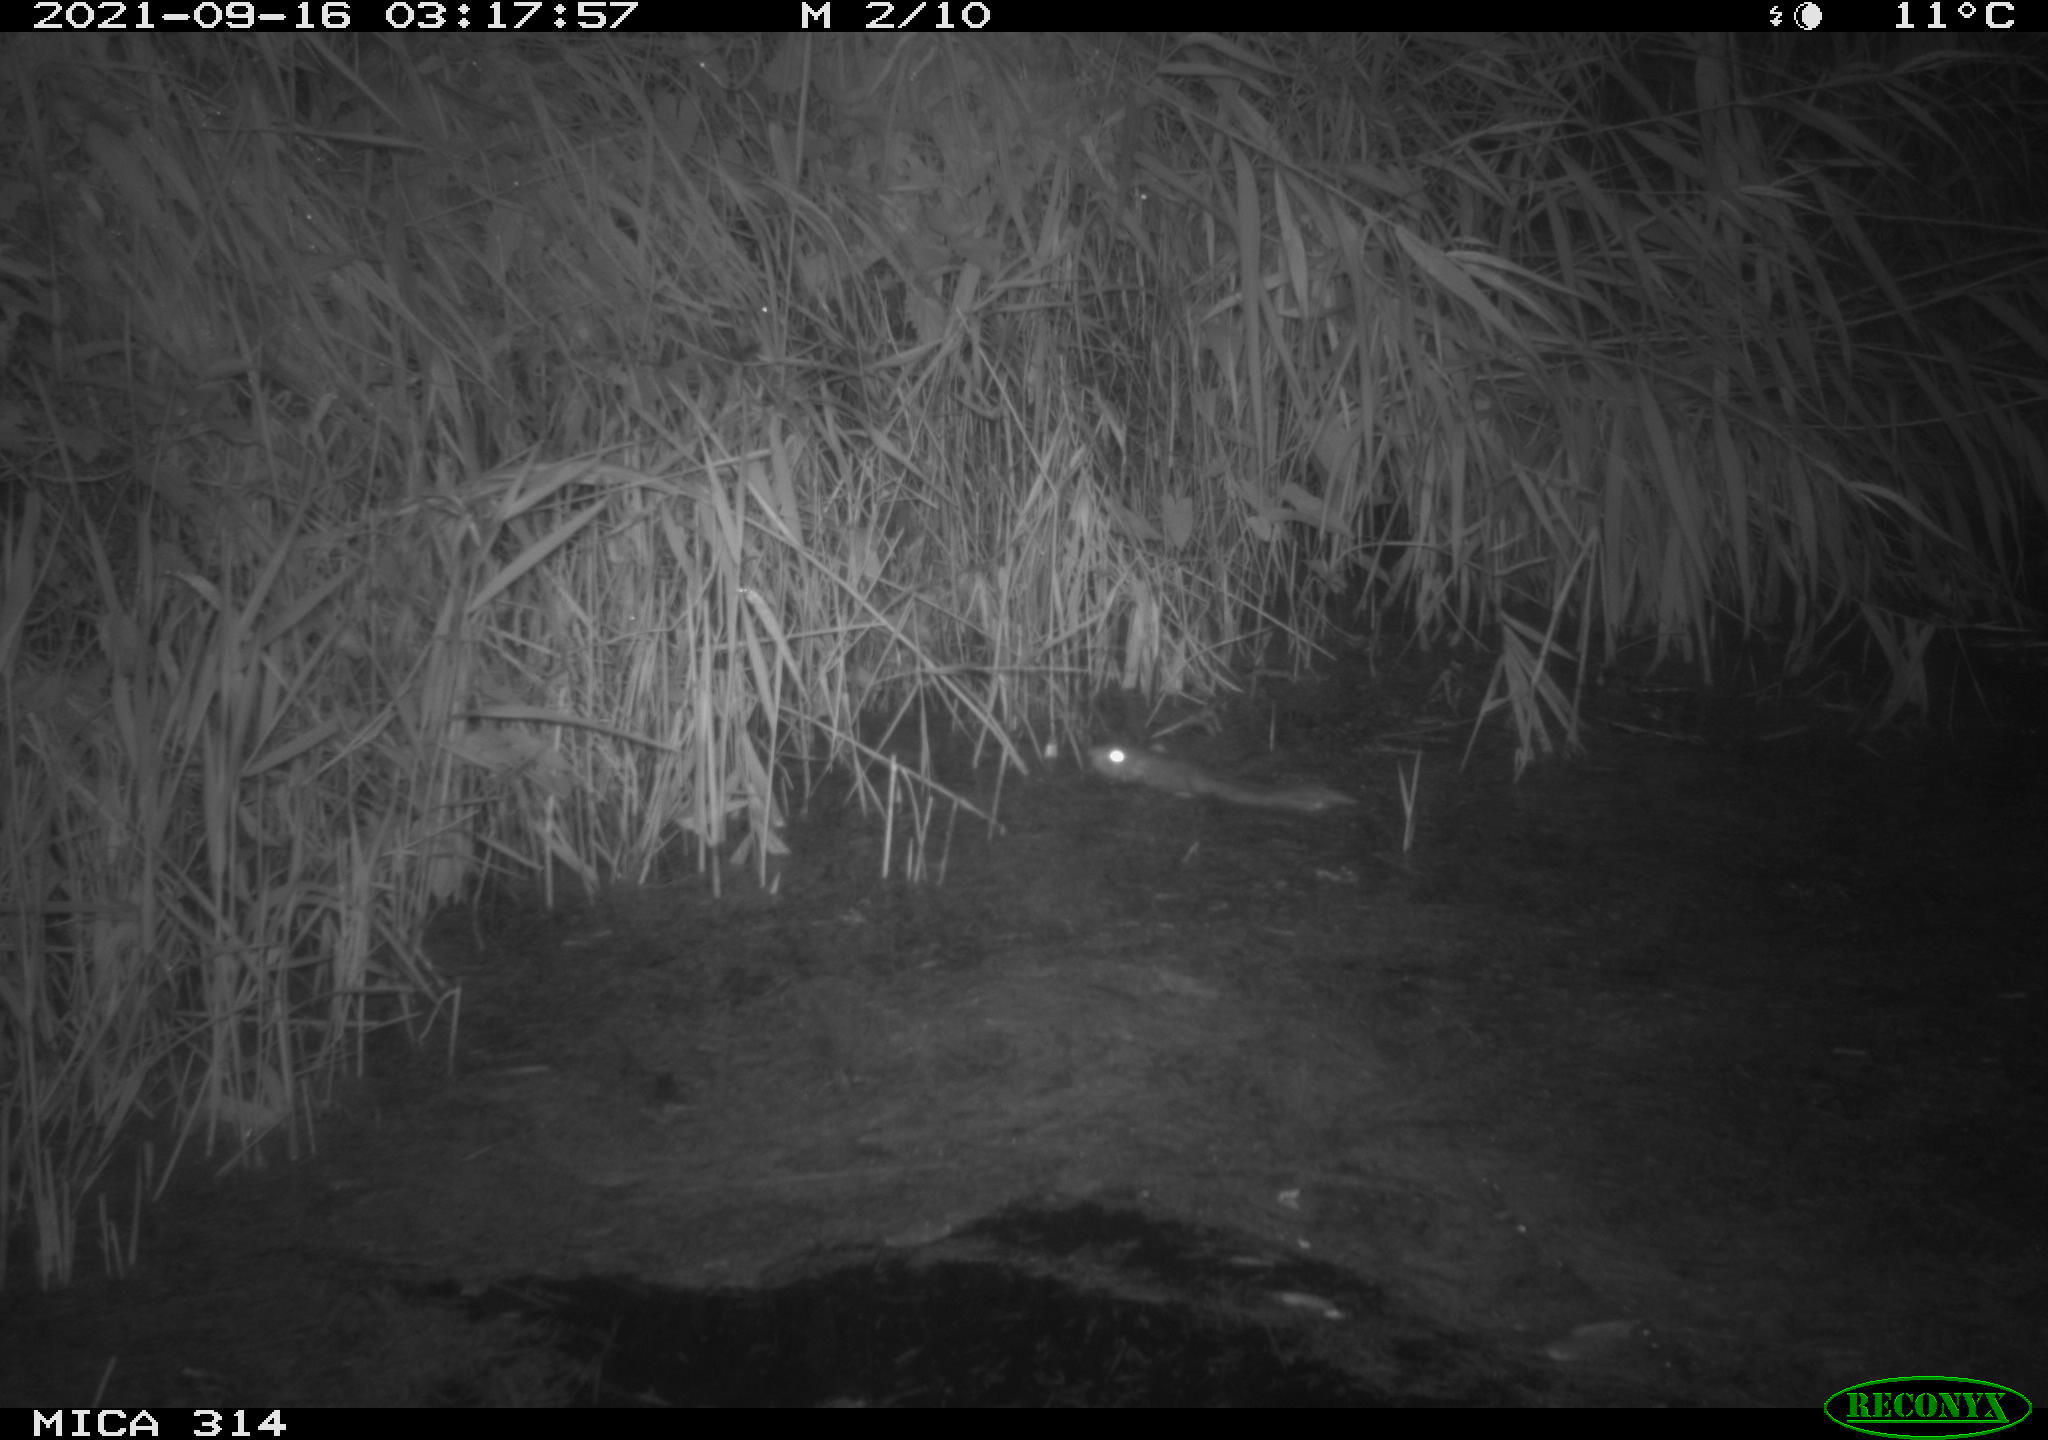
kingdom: Animalia
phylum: Chordata
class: Mammalia
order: Rodentia
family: Muridae
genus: Rattus
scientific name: Rattus norvegicus
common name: Brown rat
